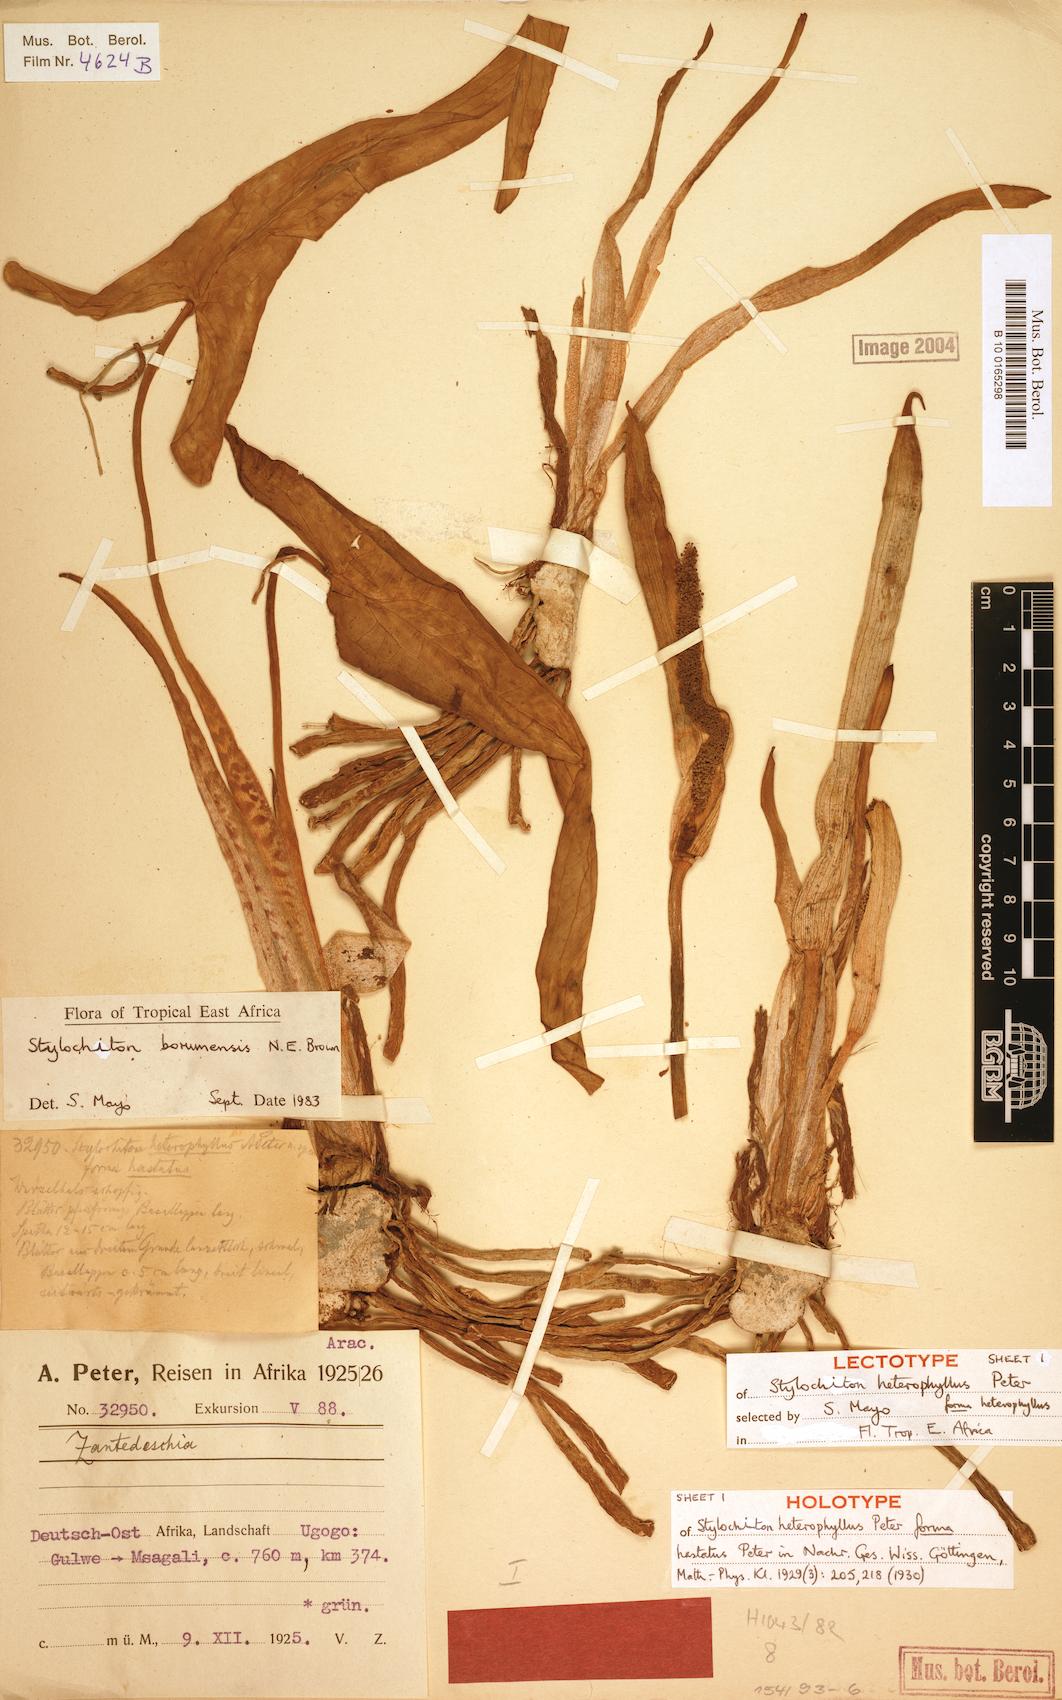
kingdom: Plantae
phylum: Tracheophyta
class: Liliopsida
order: Alismatales
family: Araceae
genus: Stylochiton
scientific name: Stylochiton borumensis
